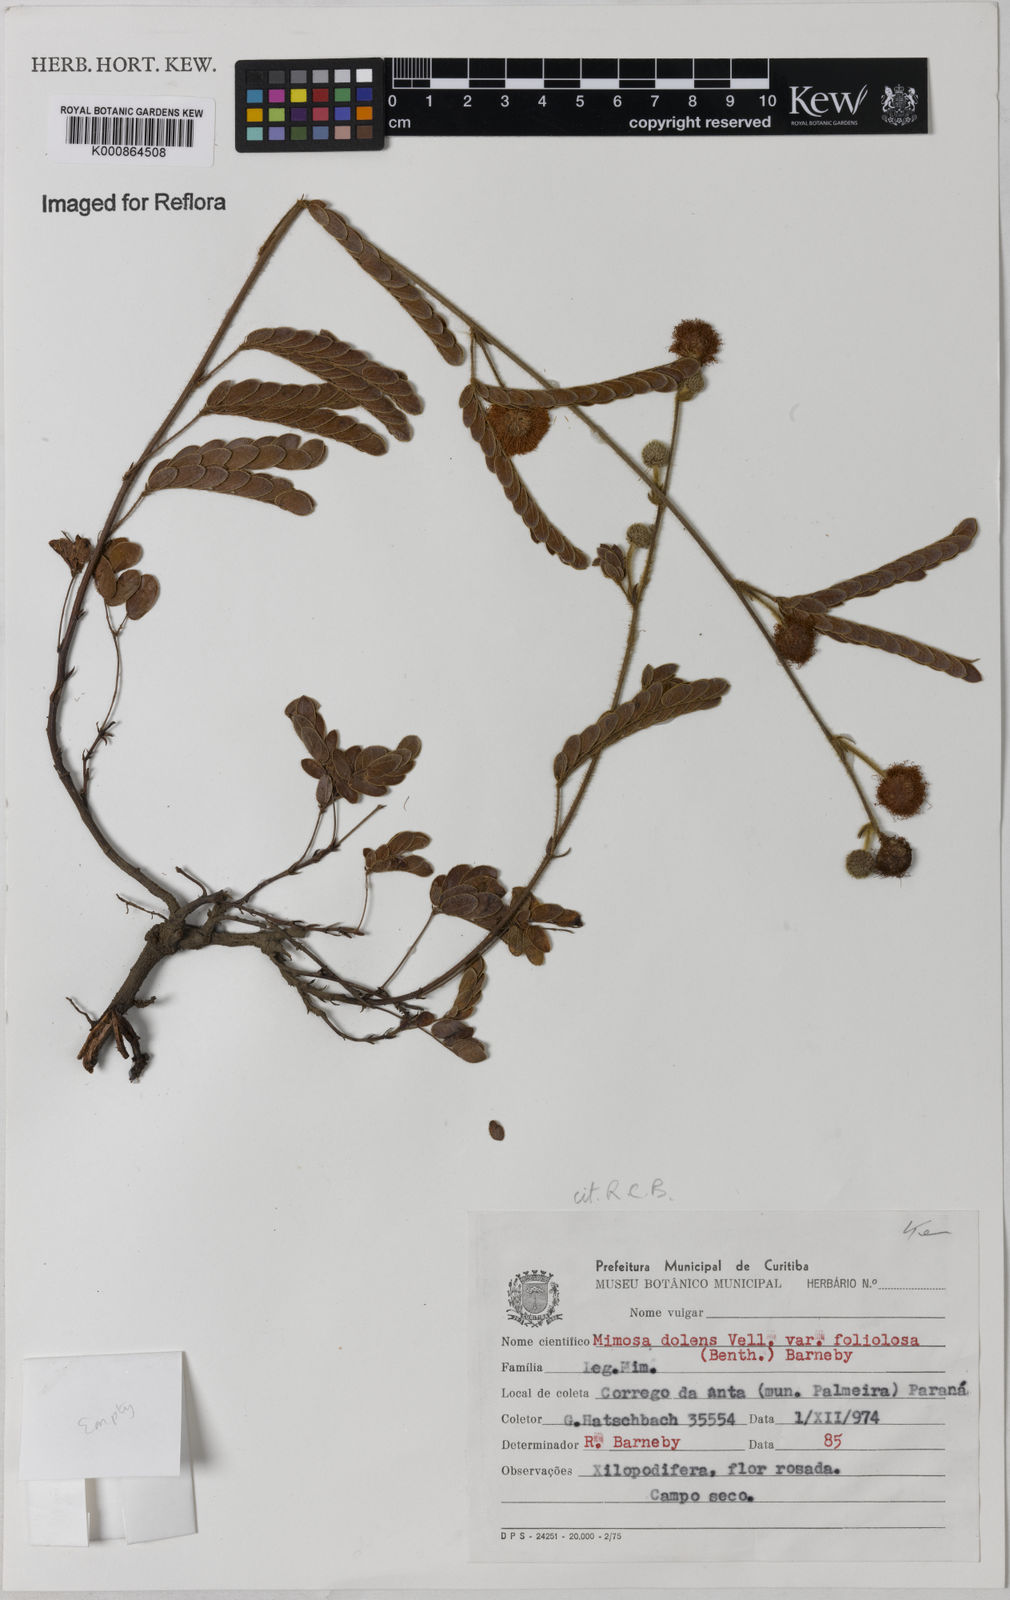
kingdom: Plantae
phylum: Tracheophyta
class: Magnoliopsida
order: Fabales
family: Fabaceae
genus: Mimosa
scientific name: Mimosa dolens
